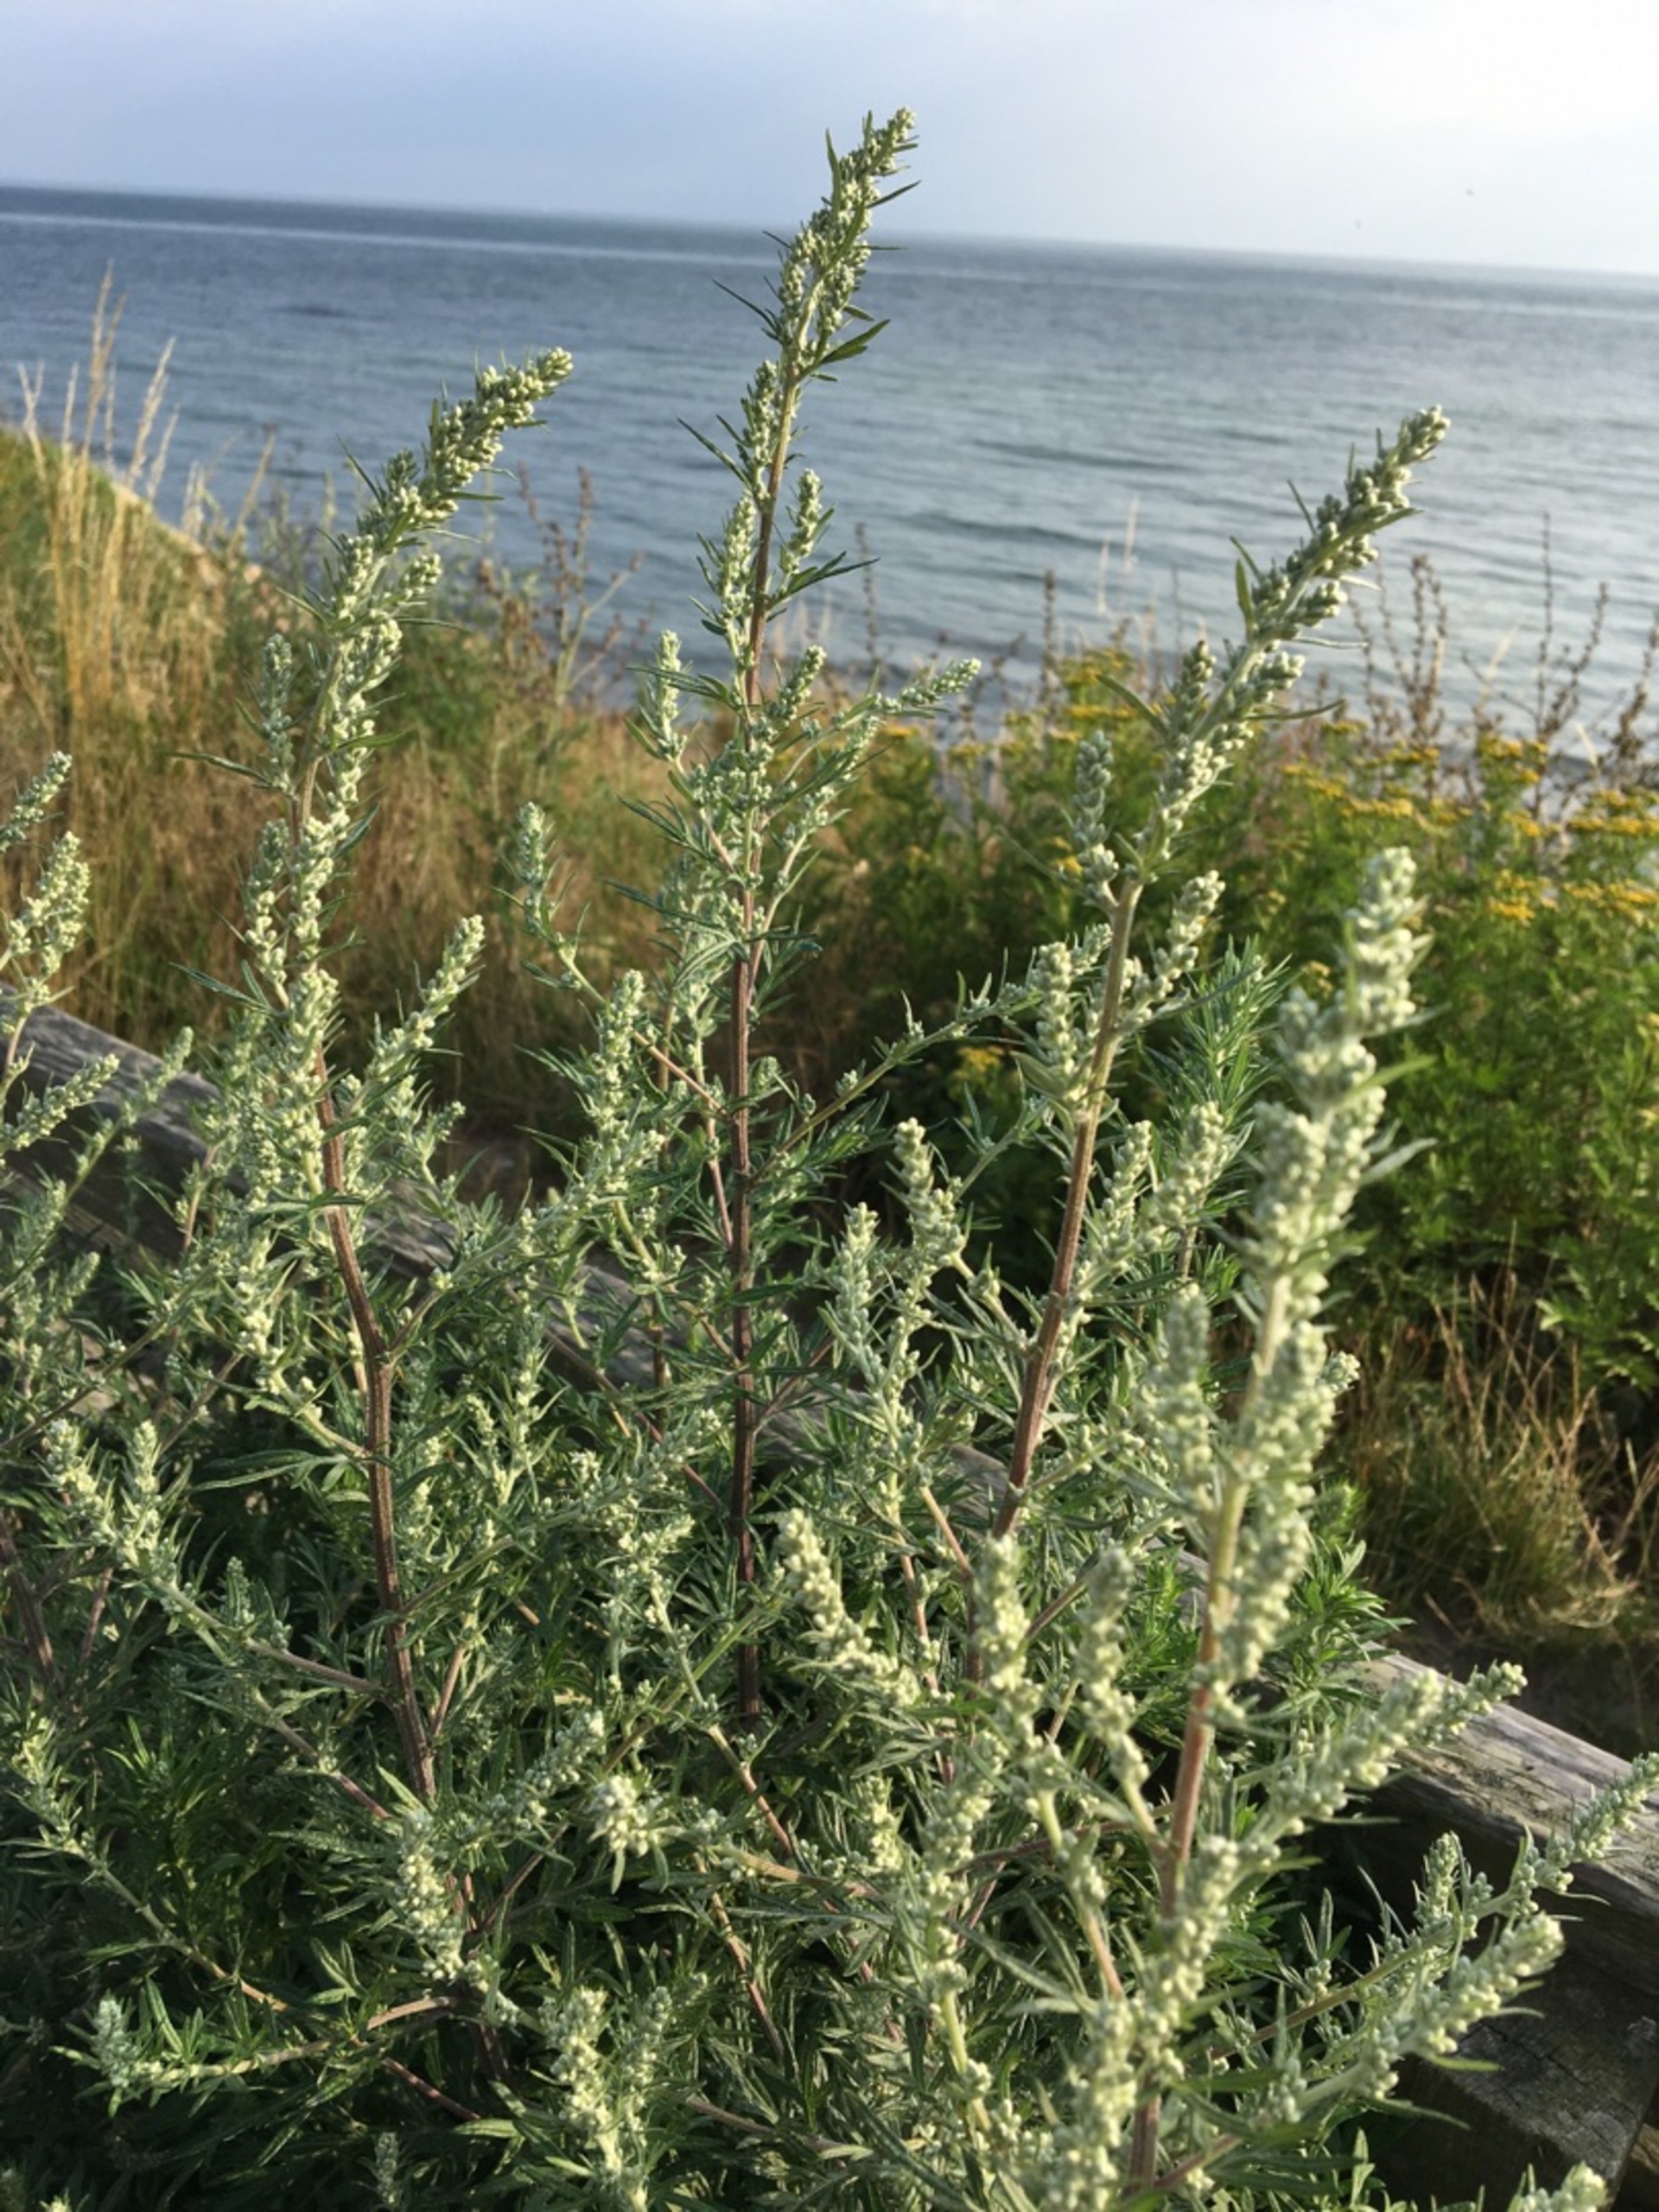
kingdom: Plantae
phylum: Tracheophyta
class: Magnoliopsida
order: Asterales
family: Asteraceae
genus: Artemisia
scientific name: Artemisia vulgaris
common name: Grå-bynke
